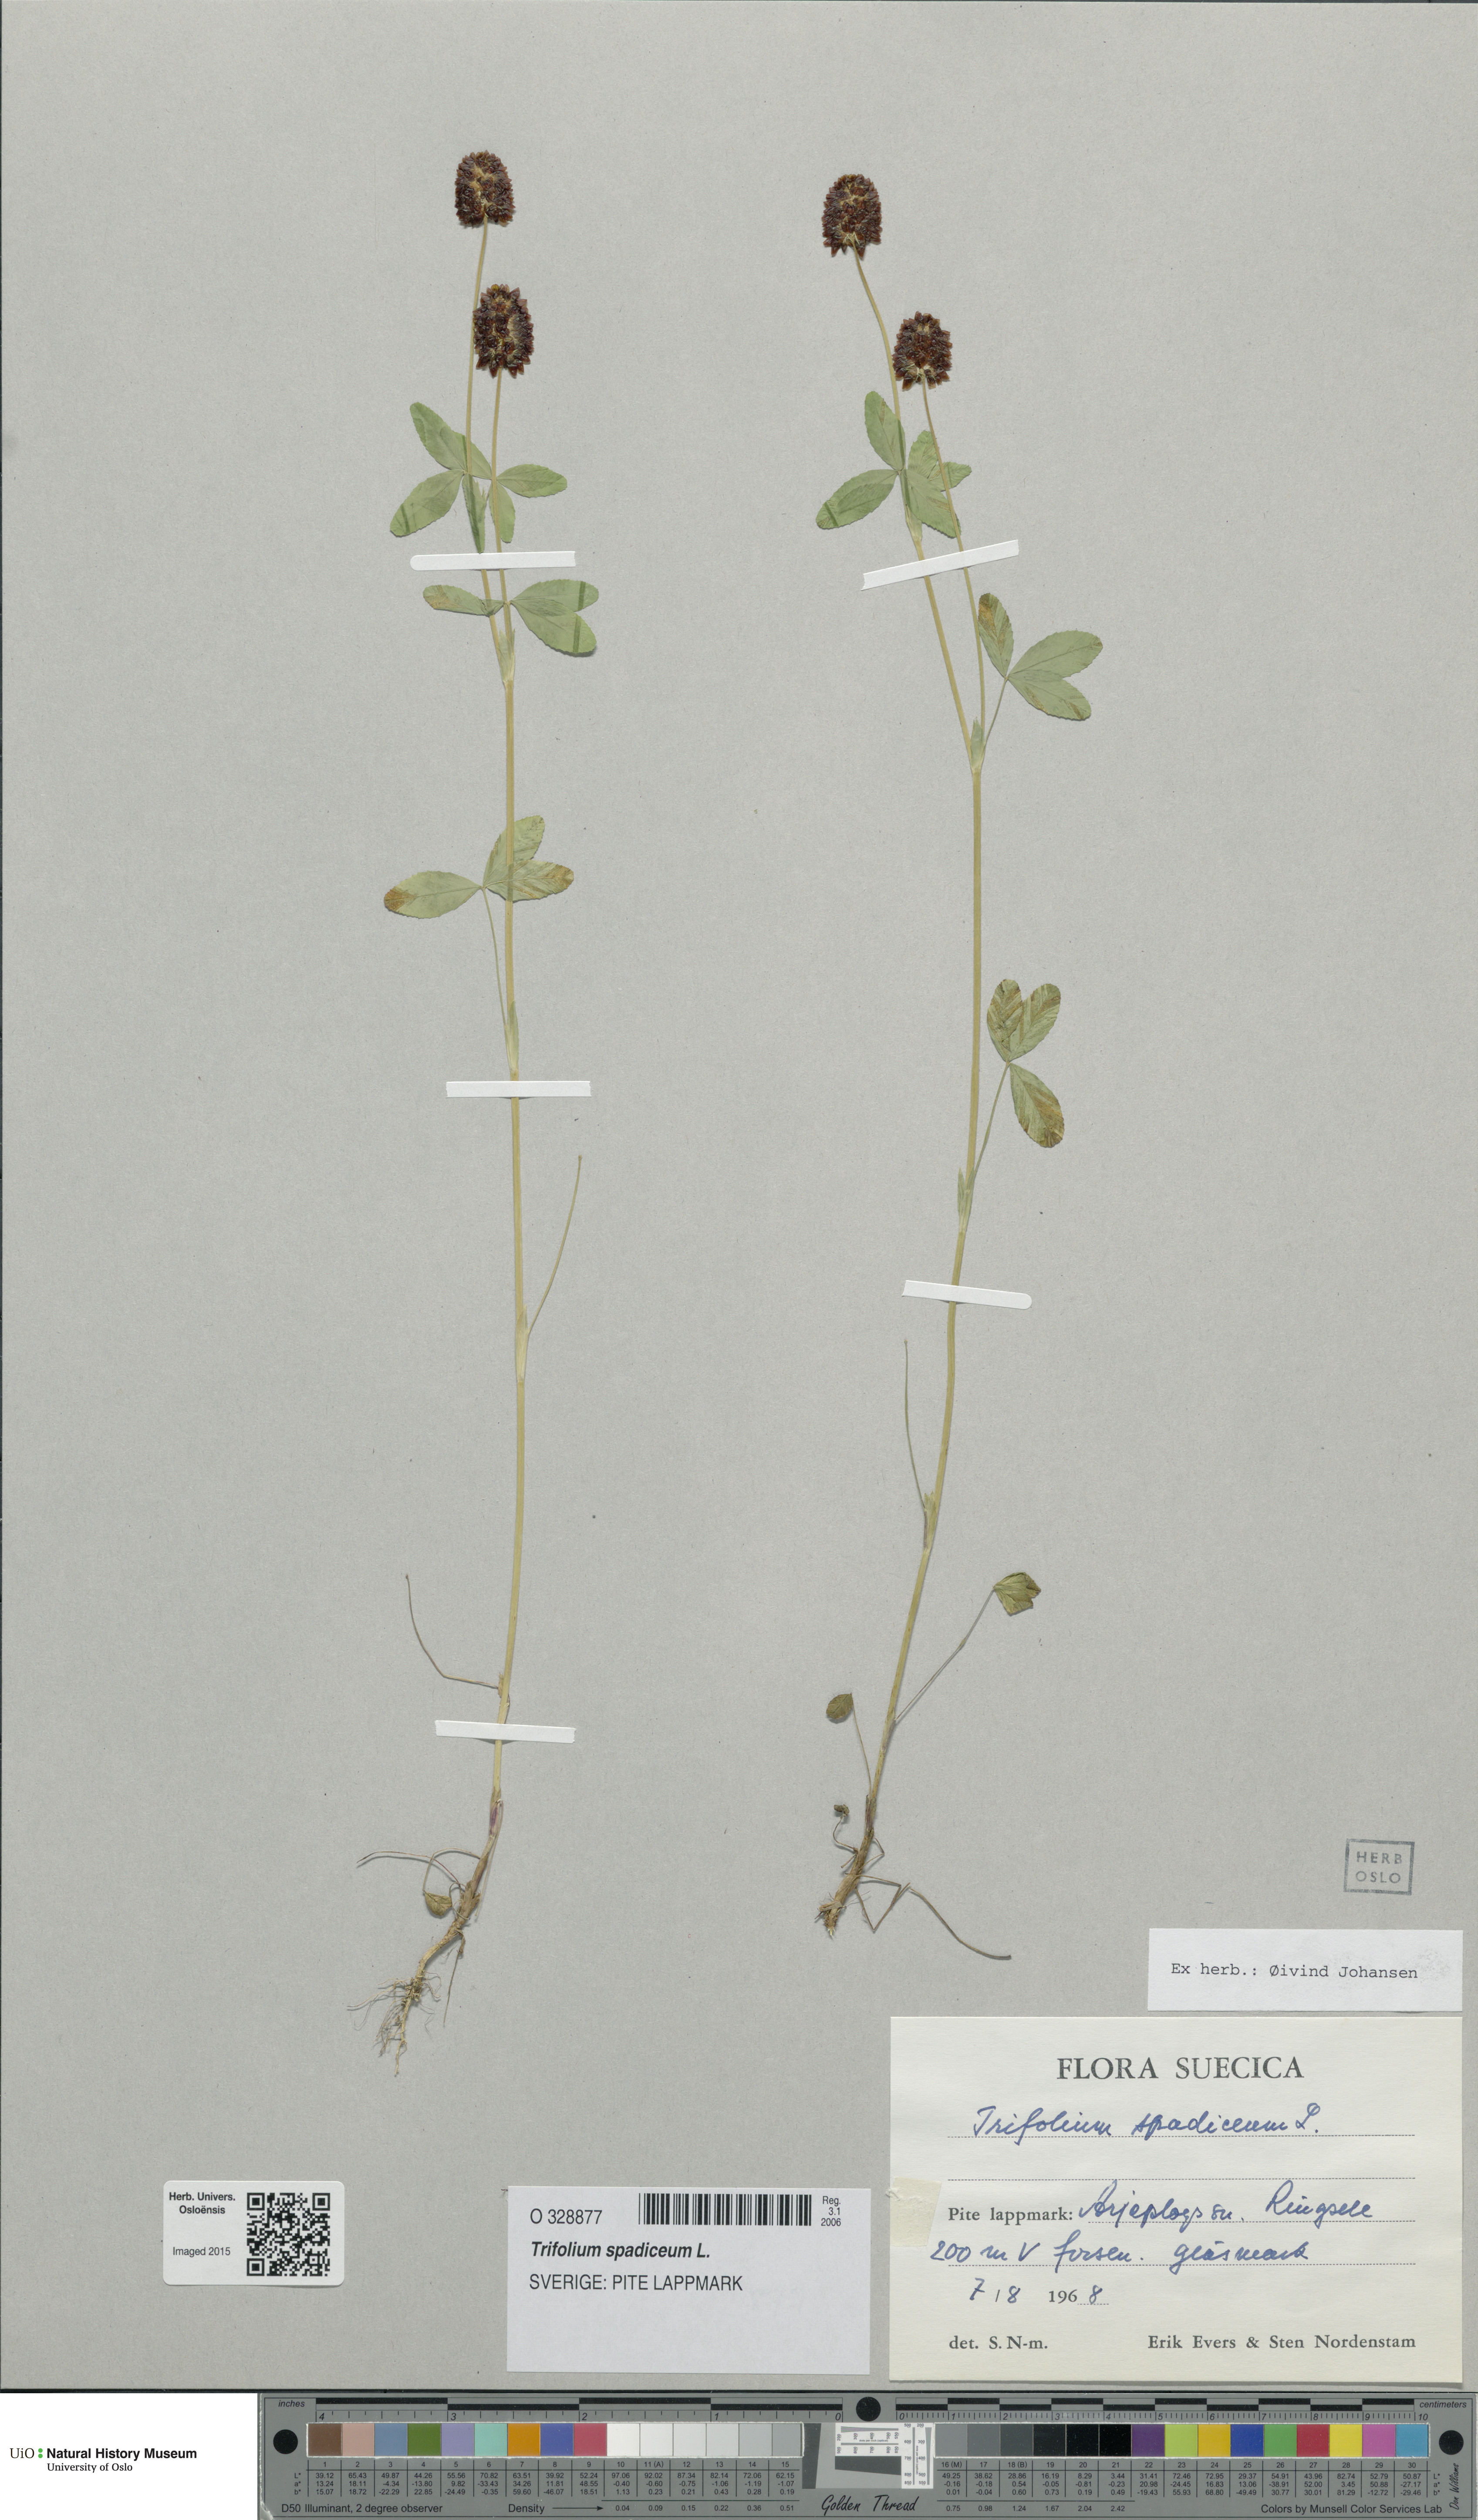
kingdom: Plantae
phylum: Tracheophyta
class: Magnoliopsida
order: Fabales
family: Fabaceae
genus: Trifolium
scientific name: Trifolium spadiceum
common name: Brown moor clover
